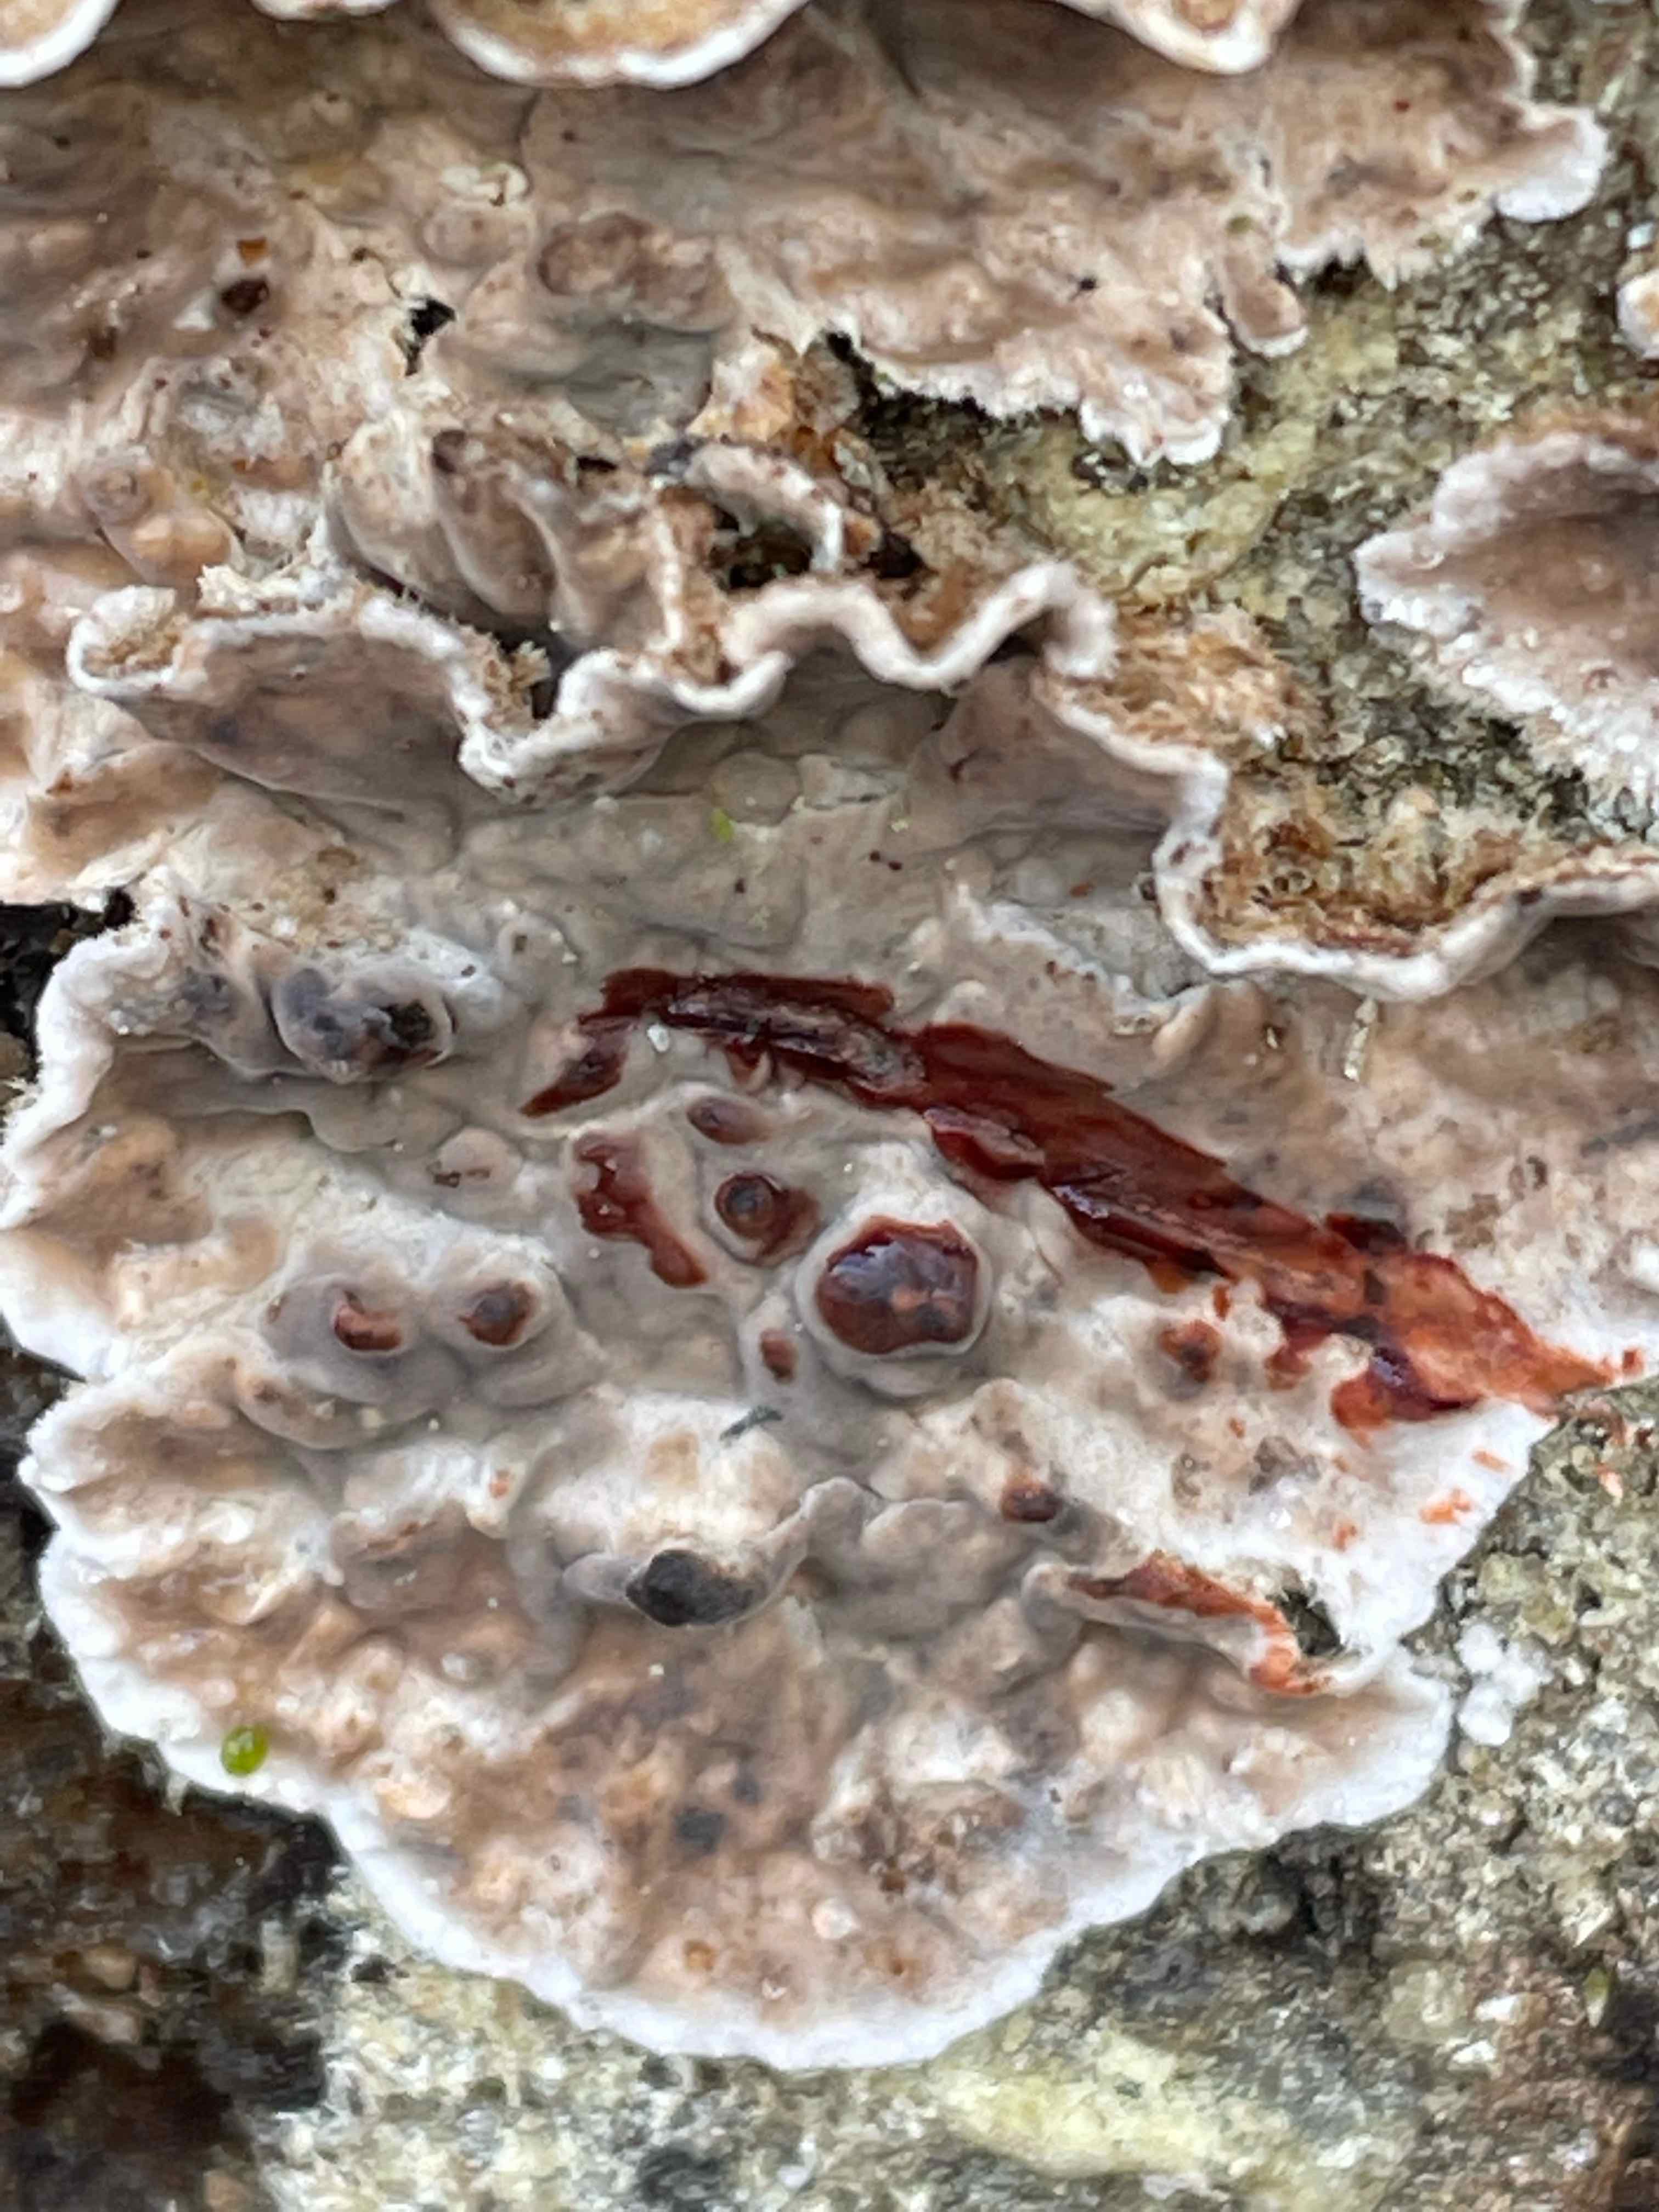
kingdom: Fungi
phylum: Basidiomycota
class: Agaricomycetes
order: Russulales
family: Stereaceae
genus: Stereum
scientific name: Stereum sanguinolentum
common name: blødende lædersvamp
